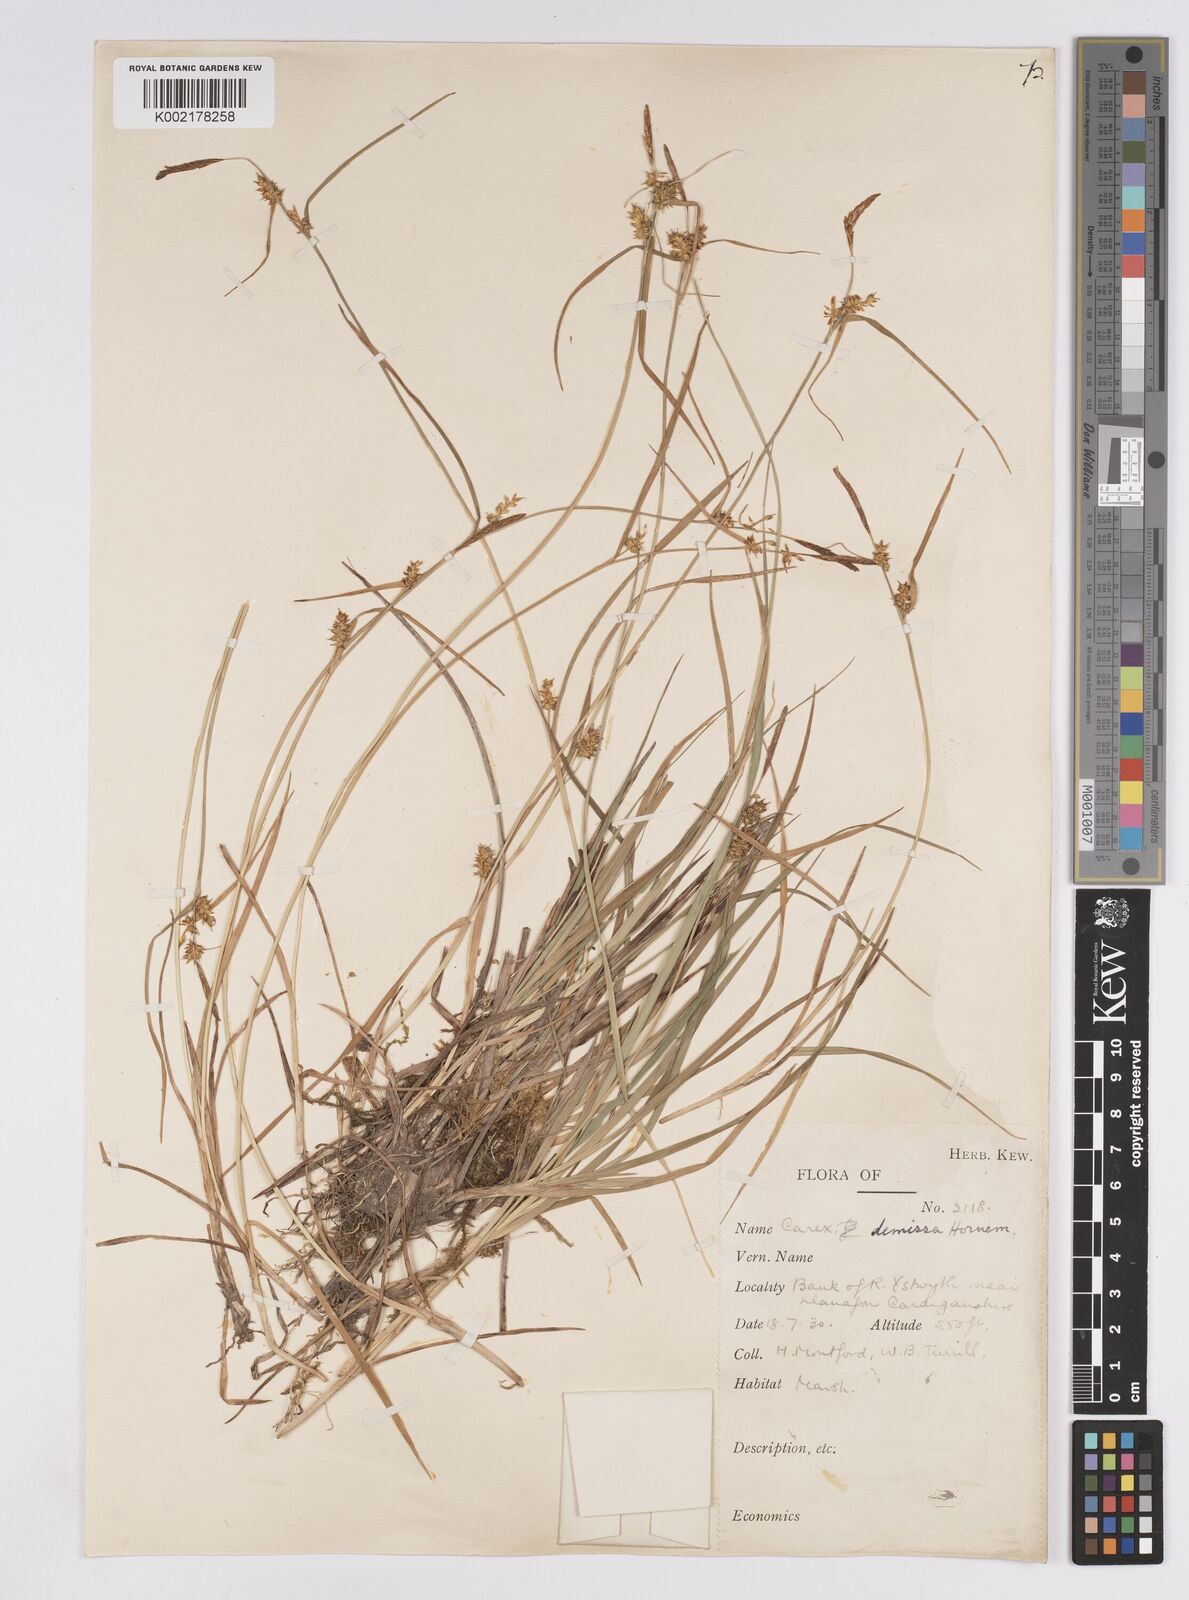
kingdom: Plantae
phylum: Tracheophyta
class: Liliopsida
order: Poales
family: Cyperaceae
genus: Carex
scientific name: Carex demissa
